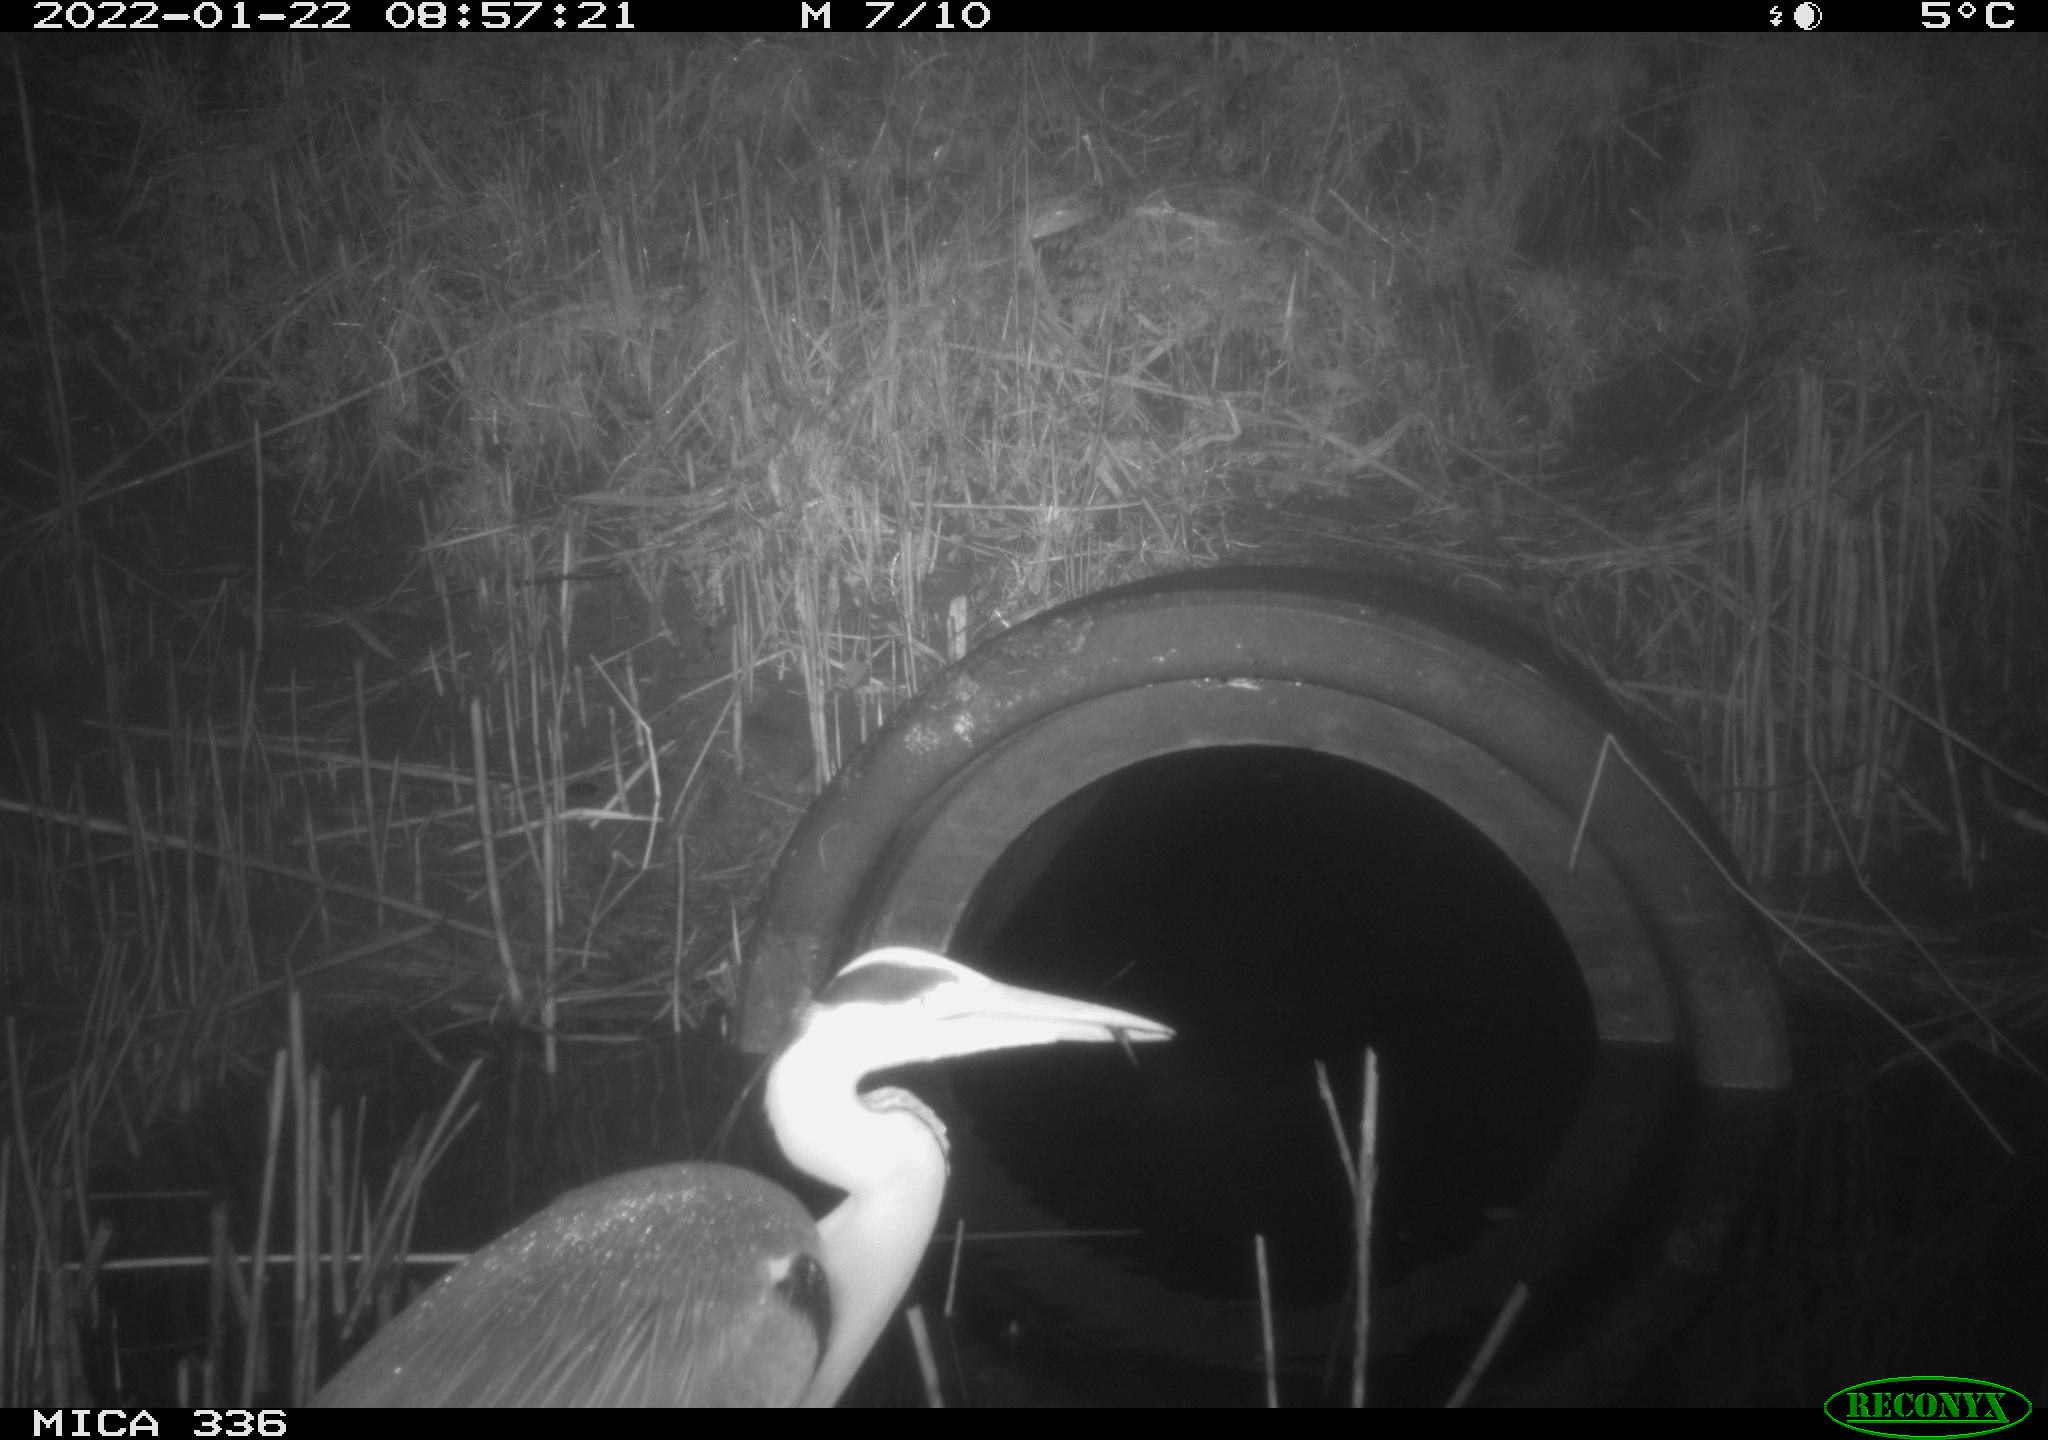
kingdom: Animalia
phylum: Chordata
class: Aves
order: Pelecaniformes
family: Ardeidae
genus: Ardea
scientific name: Ardea cinerea
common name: Grey heron
